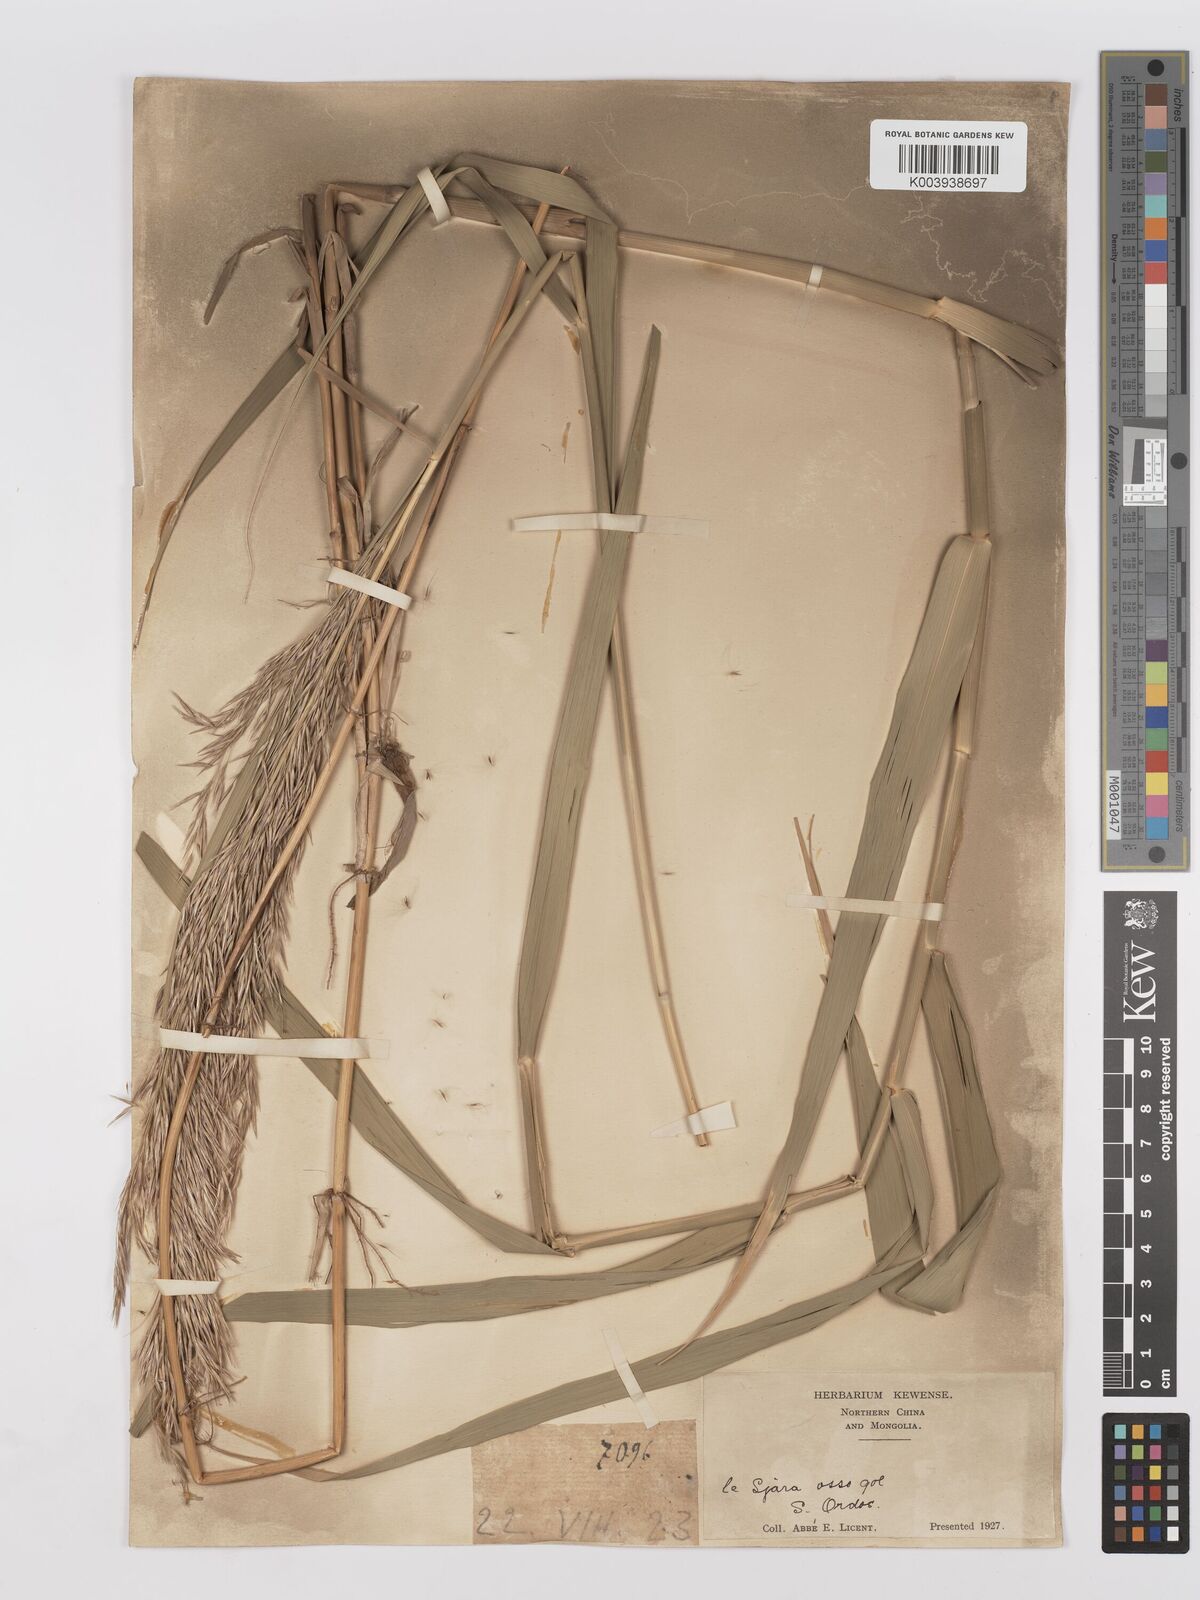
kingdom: Plantae
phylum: Tracheophyta
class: Liliopsida
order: Poales
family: Poaceae
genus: Phragmites
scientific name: Phragmites australis
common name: Common reed
